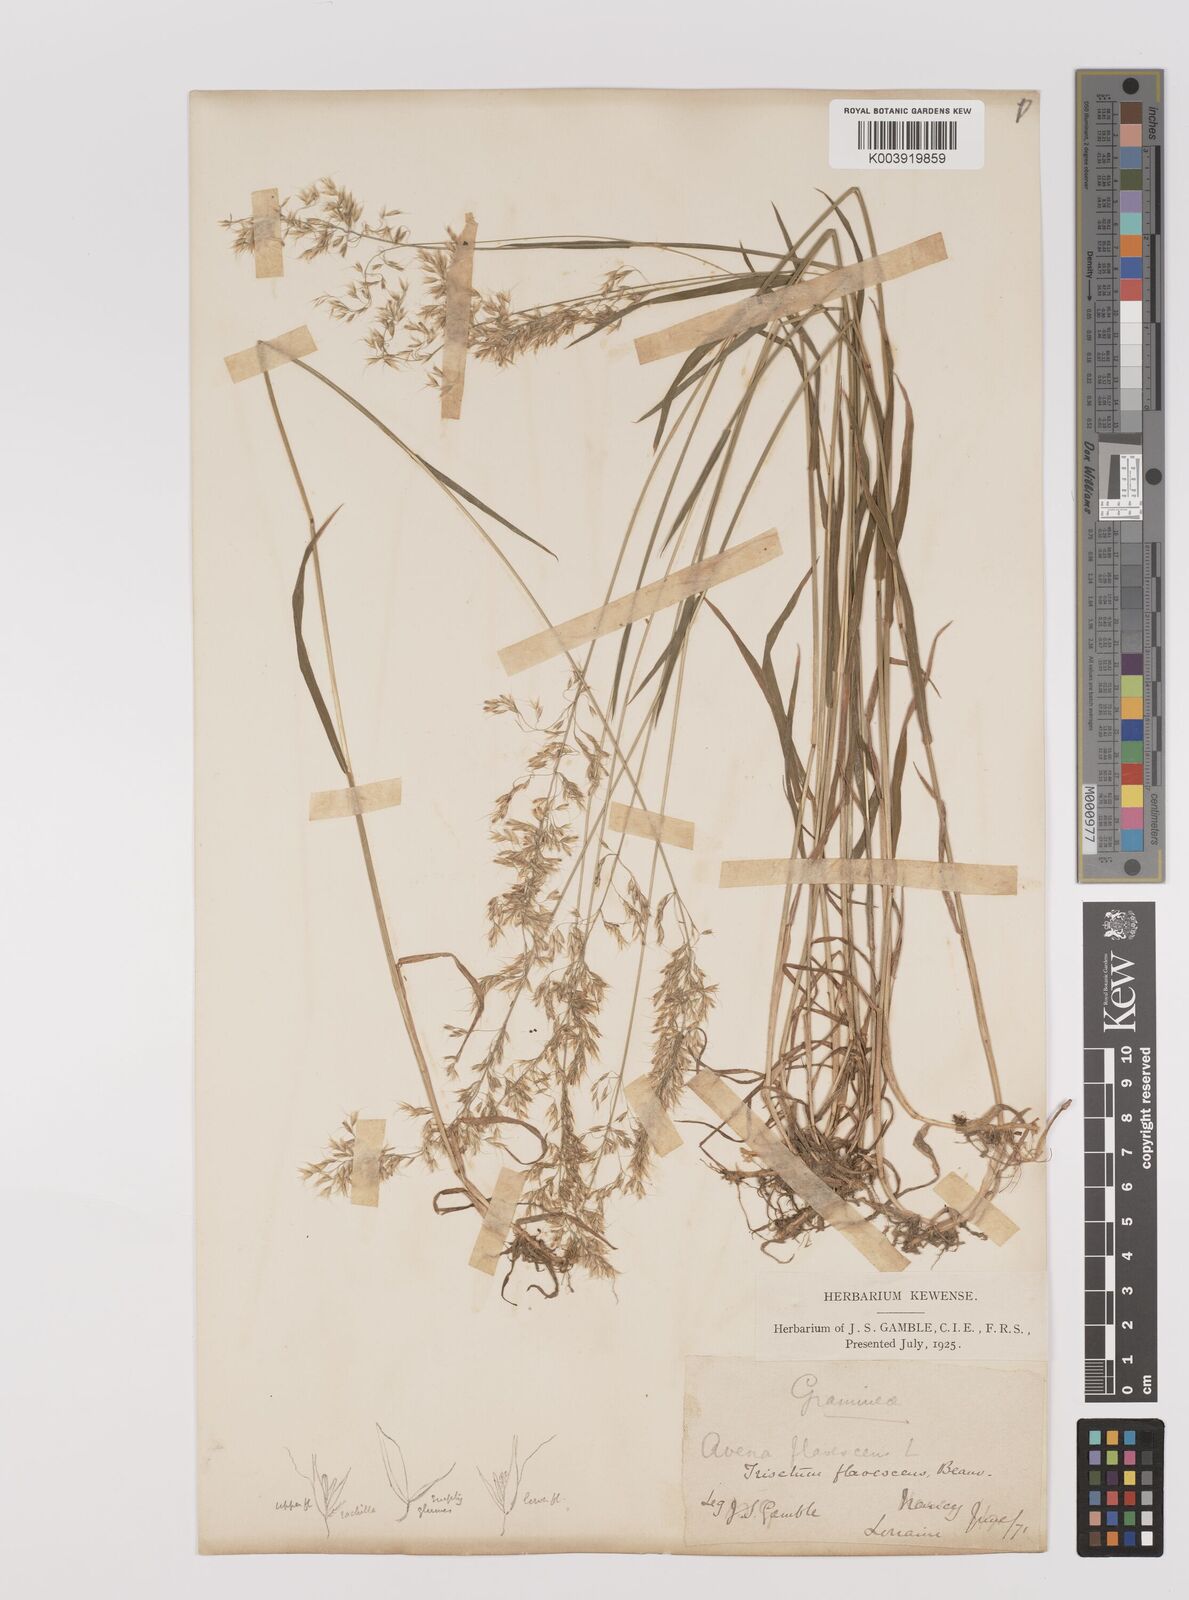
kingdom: Plantae
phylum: Tracheophyta
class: Liliopsida
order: Poales
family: Poaceae
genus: Trisetum
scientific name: Trisetum flavescens
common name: Yellow oat-grass
